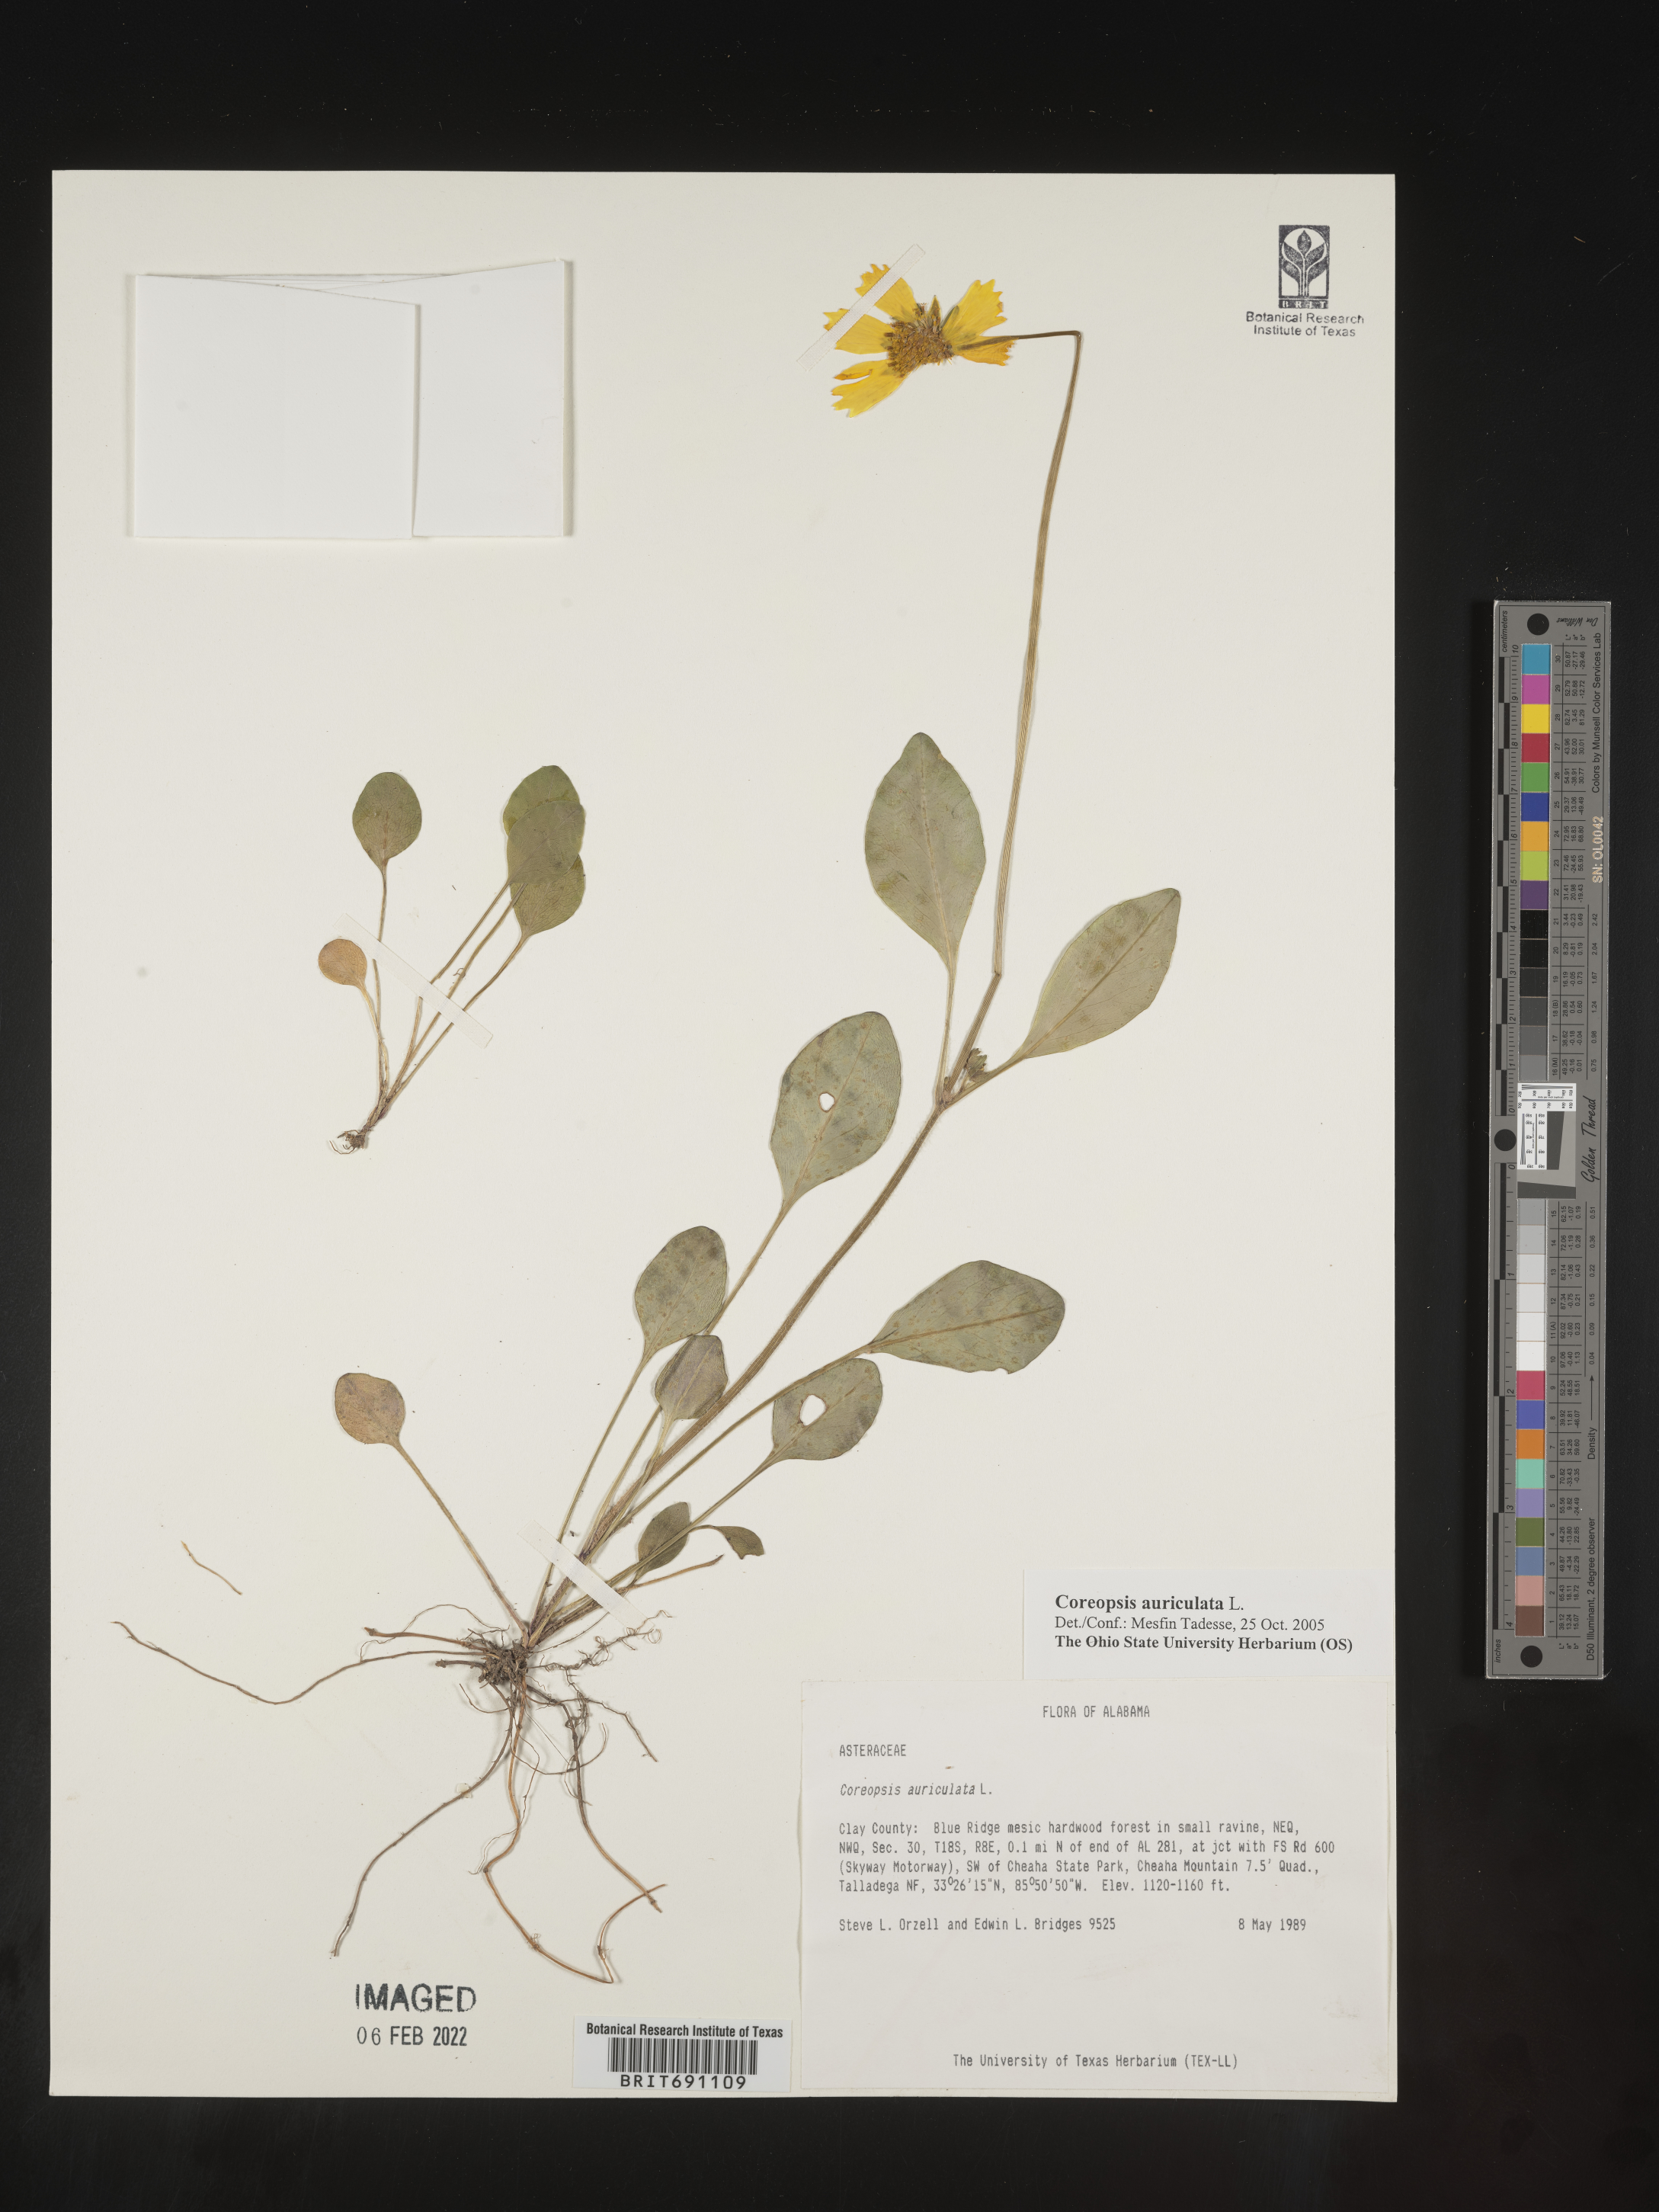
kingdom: Plantae
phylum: Tracheophyta
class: Magnoliopsida
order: Asterales
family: Asteraceae
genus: Coreopsis
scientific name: Coreopsis auriculata
